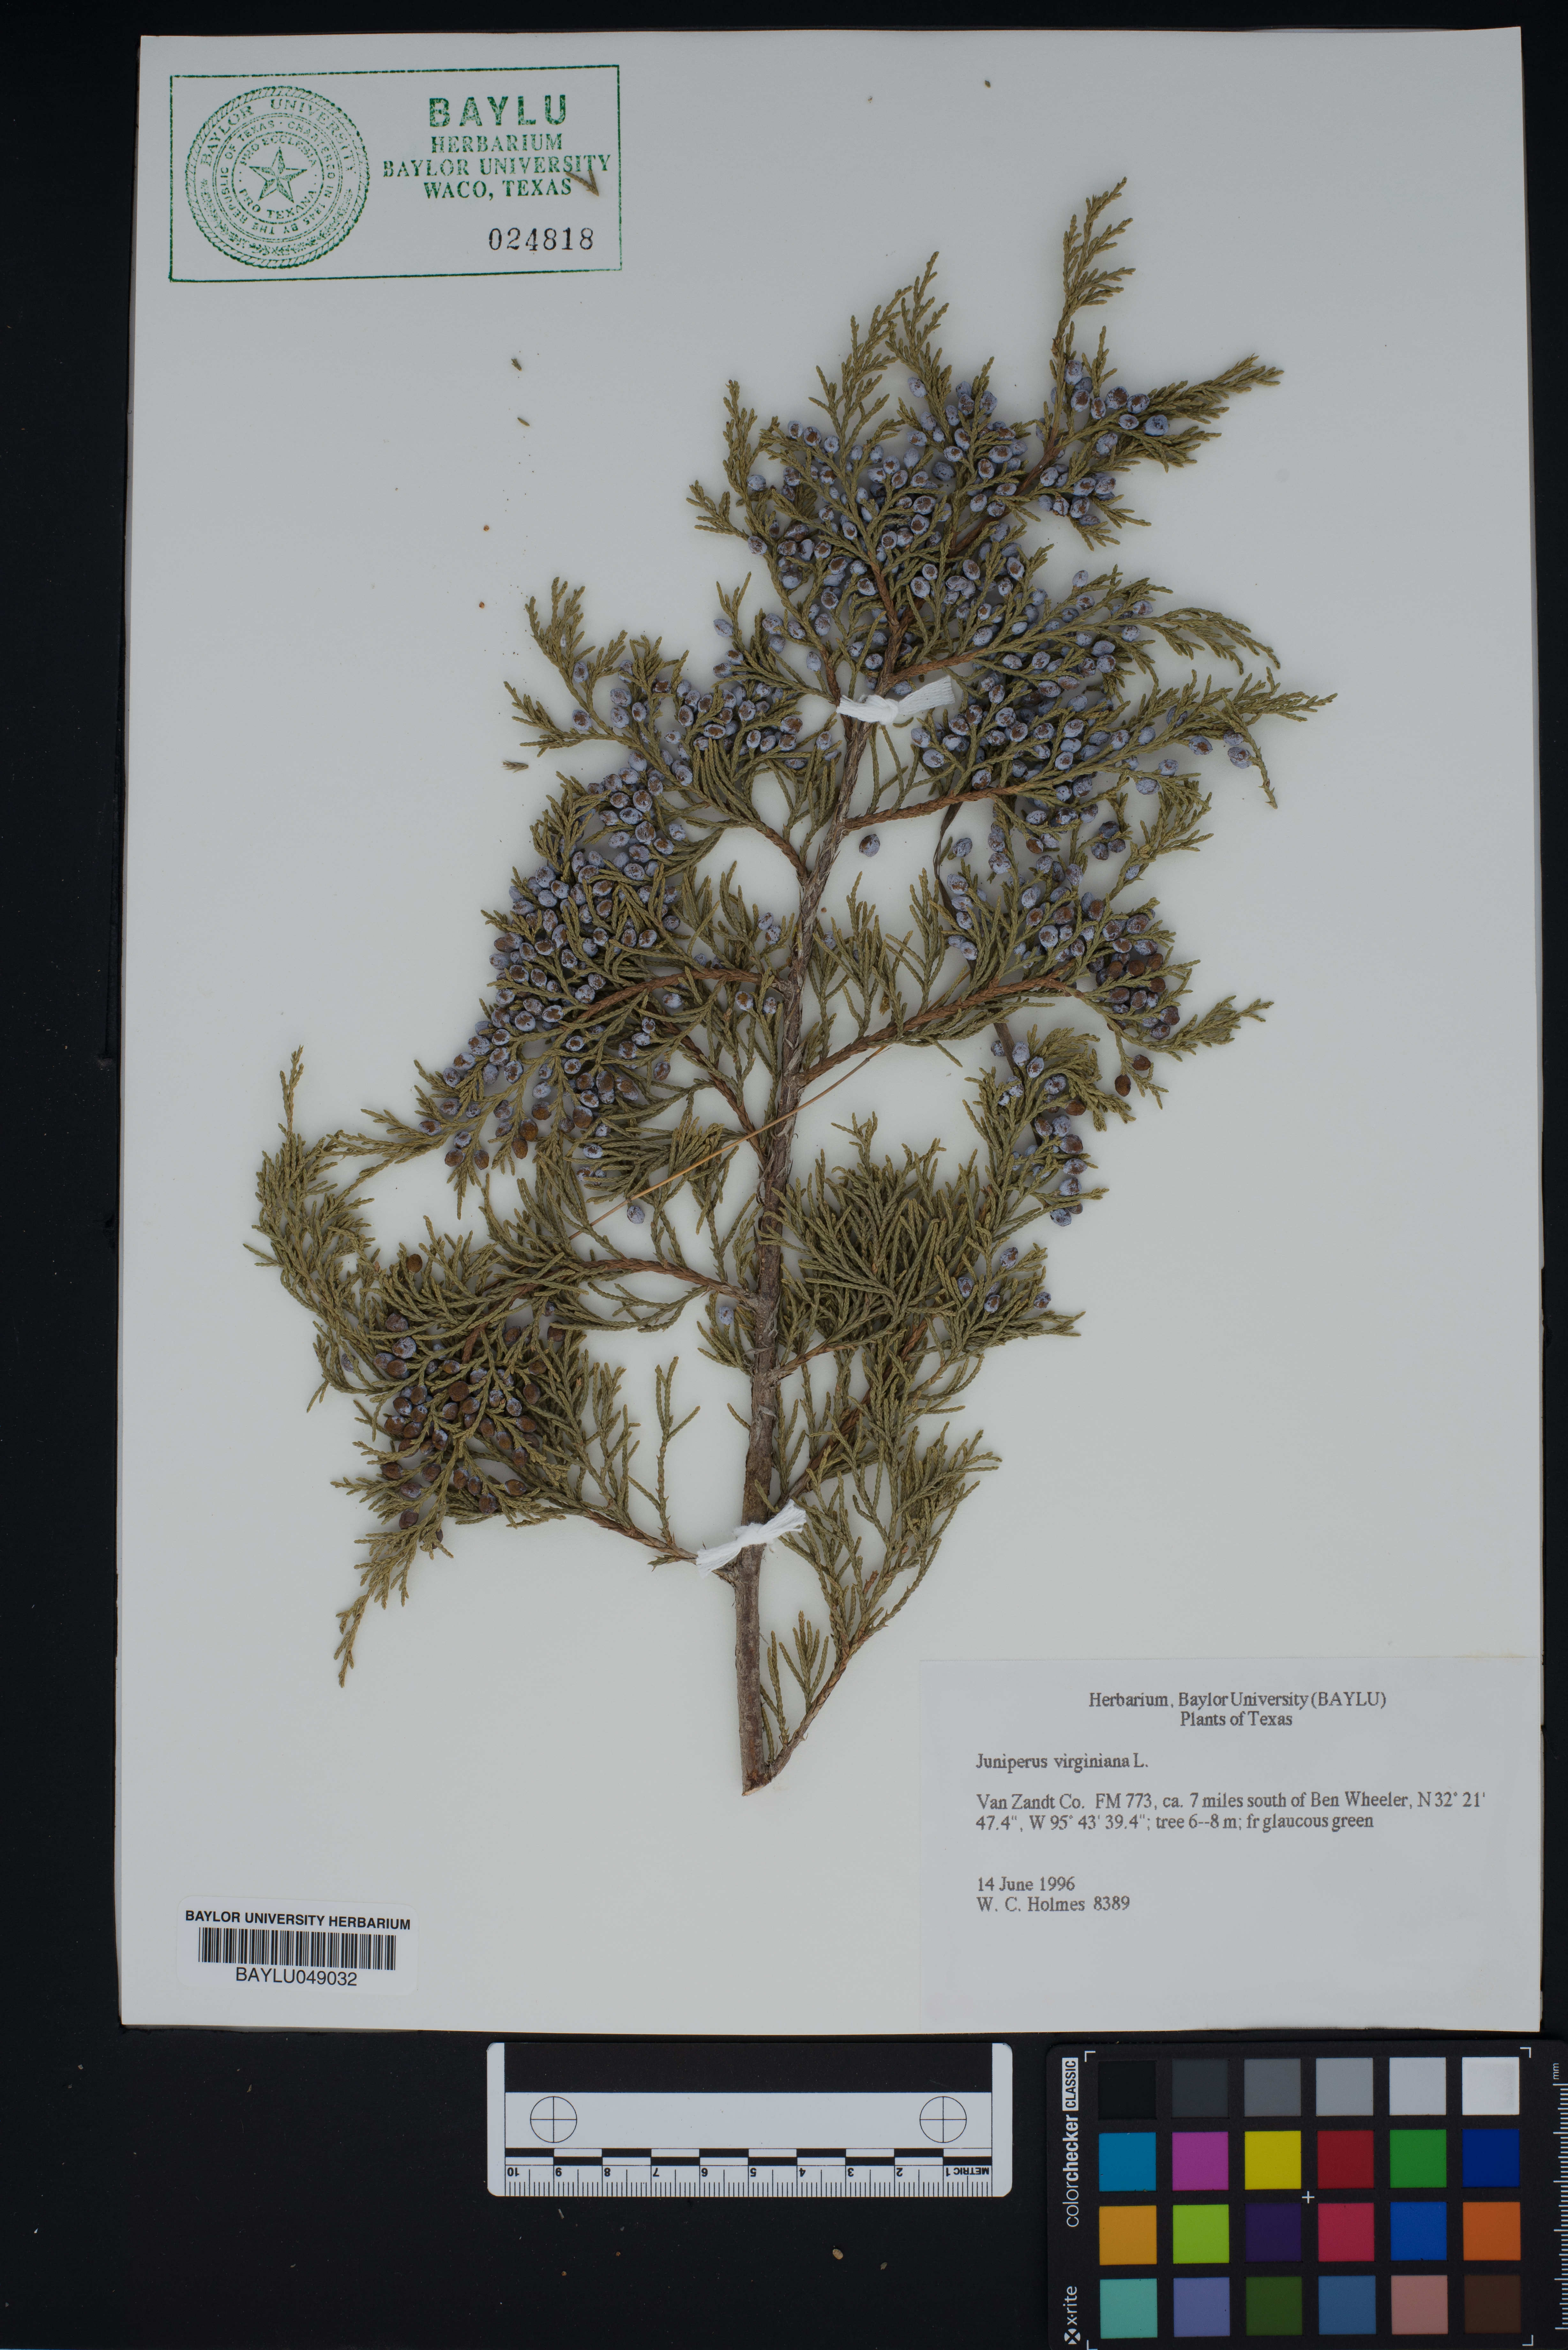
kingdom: Plantae
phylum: Tracheophyta
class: Pinopsida
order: Pinales
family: Cupressaceae
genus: Juniperus
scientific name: Juniperus virginiana
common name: Red juniper
